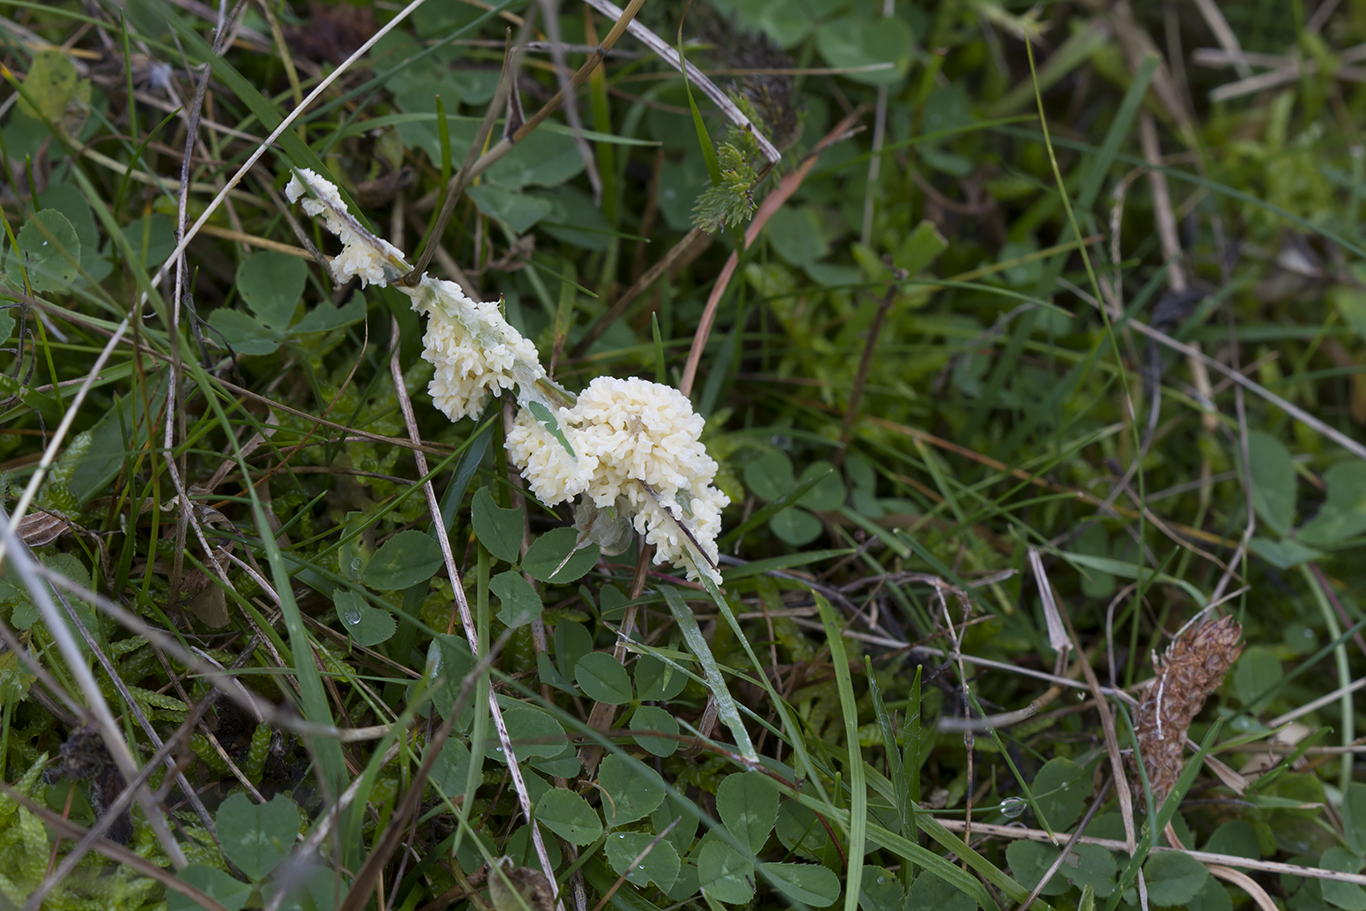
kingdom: Protozoa
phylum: Mycetozoa
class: Myxomycetes
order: Physarales
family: Physaraceae
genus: Didymium
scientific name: Didymium
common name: urteskum
